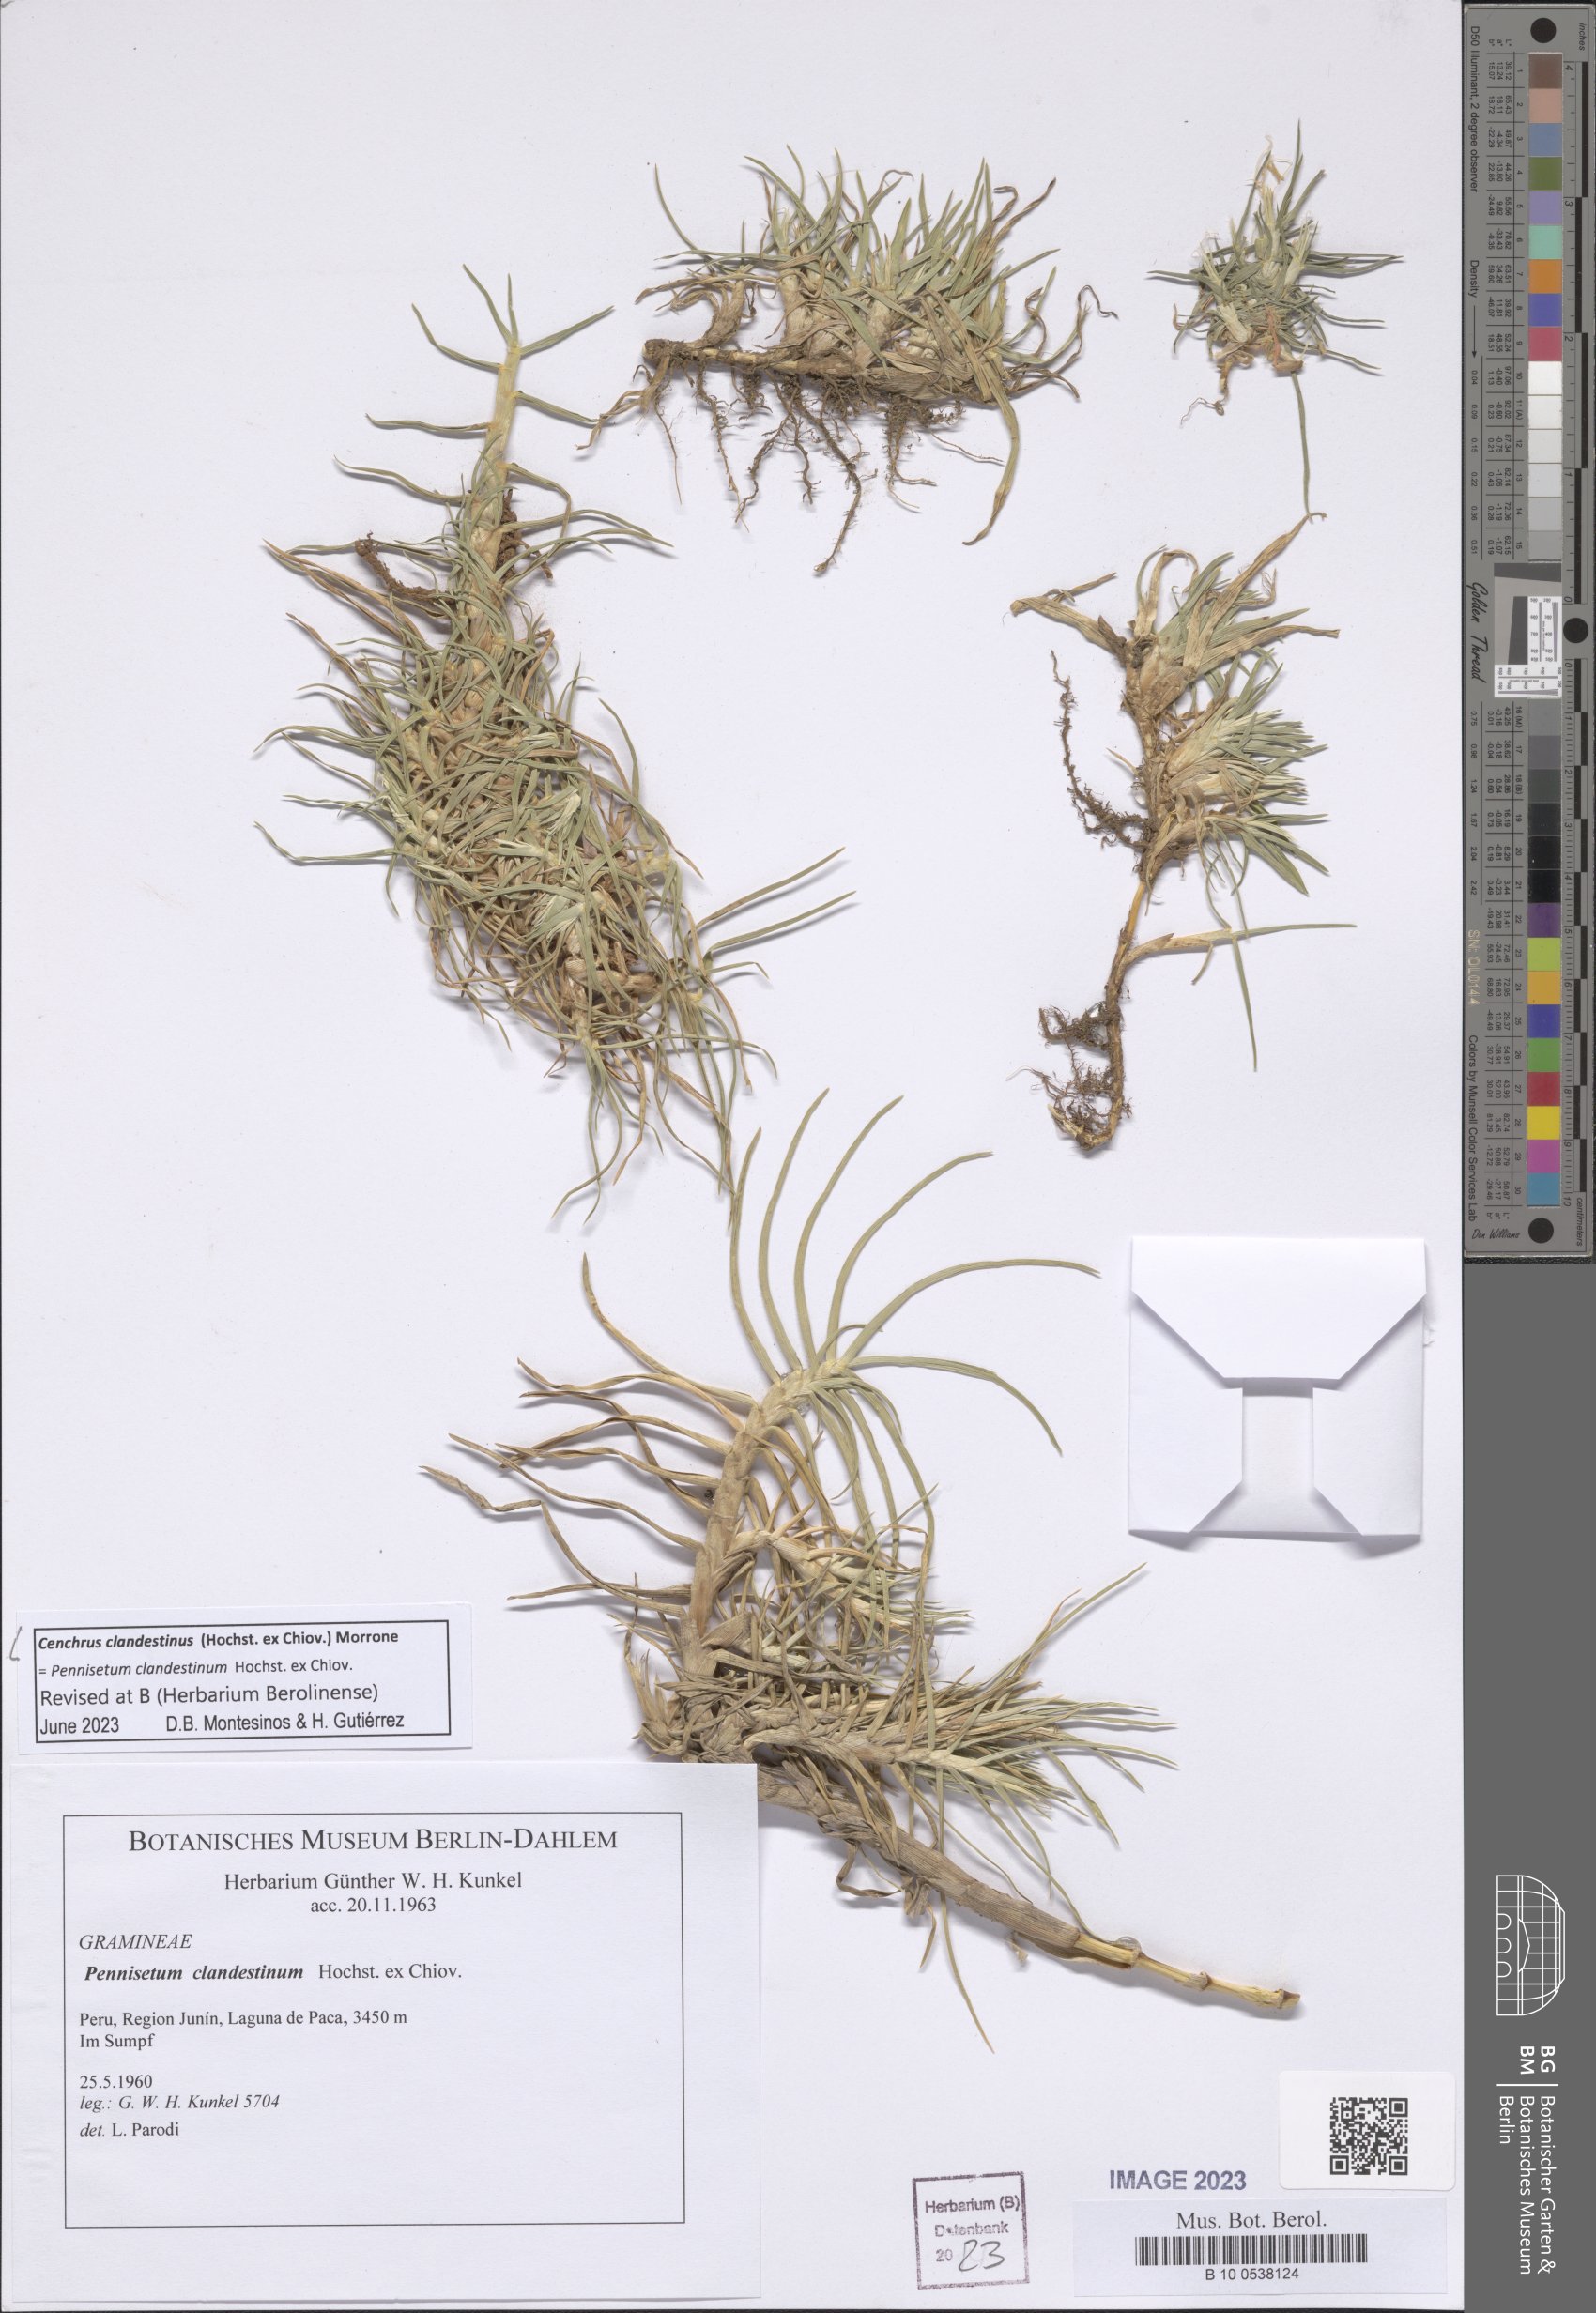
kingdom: Plantae
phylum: Tracheophyta
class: Liliopsida
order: Poales
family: Poaceae
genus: Cenchrus
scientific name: Cenchrus clandestinus
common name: Kikuyugrass
